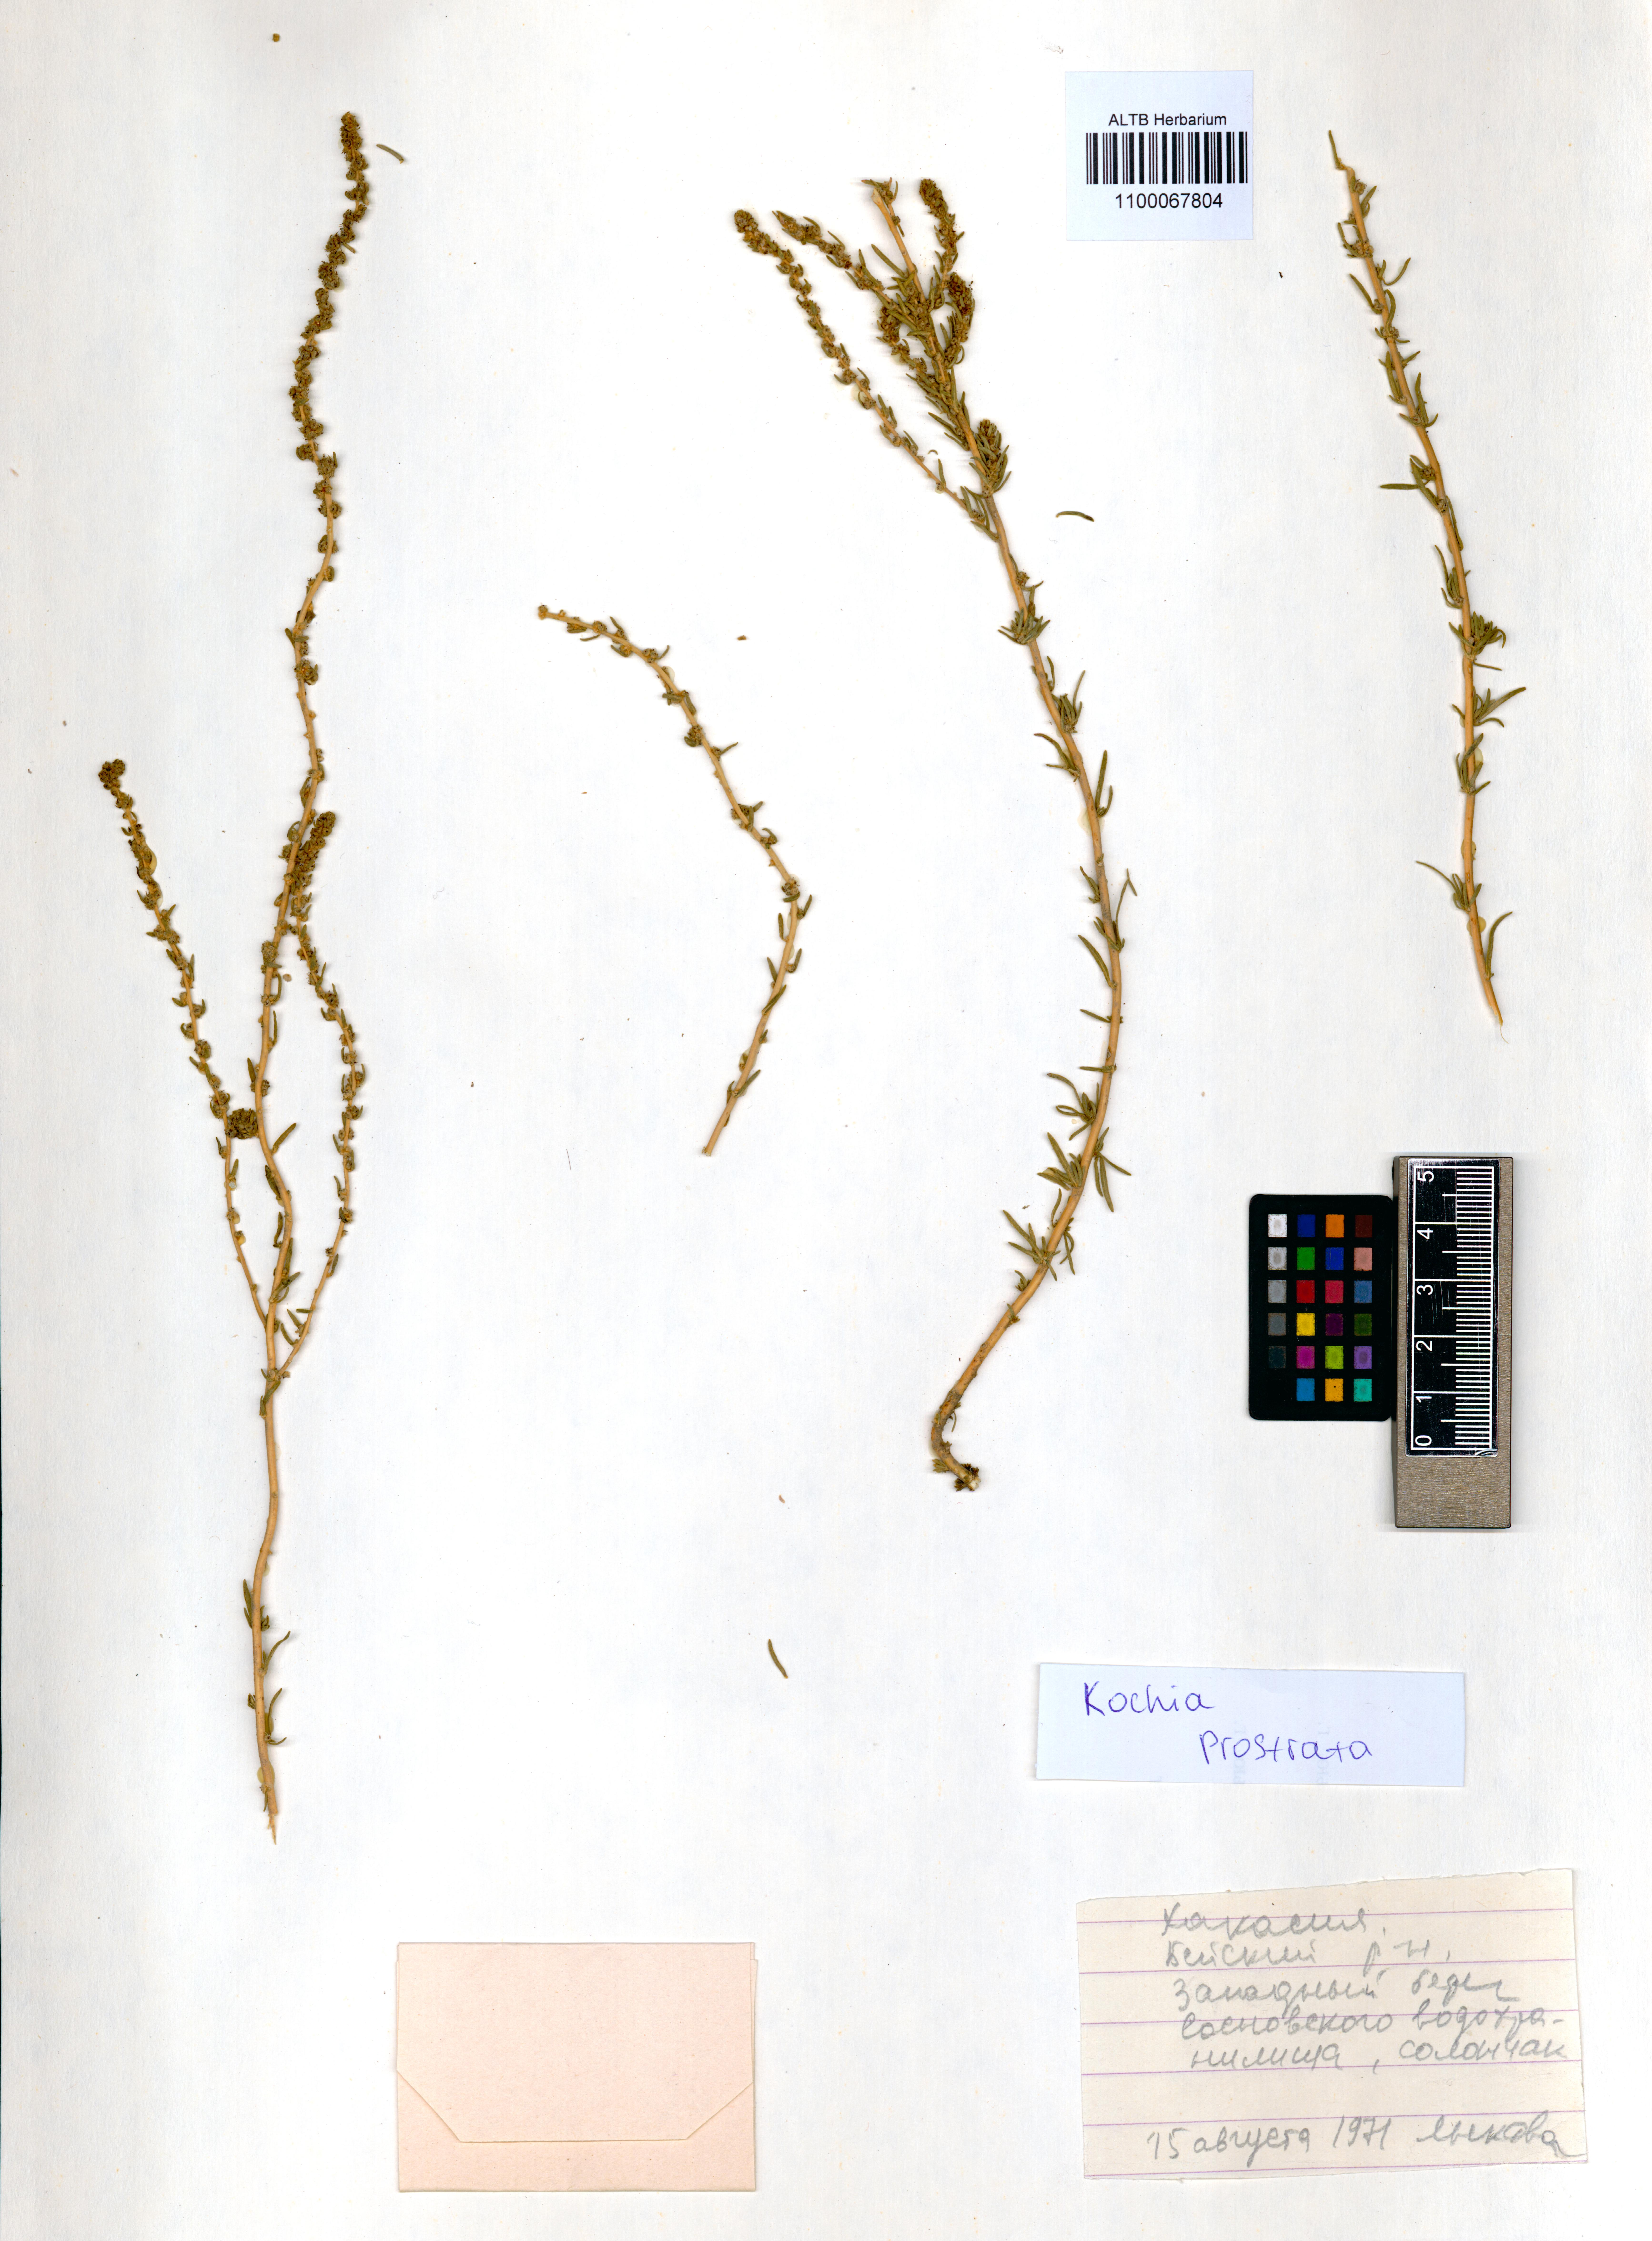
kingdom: Plantae
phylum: Tracheophyta
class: Magnoliopsida
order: Caryophyllales
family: Amaranthaceae
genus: Bassia
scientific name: Bassia prostrata
